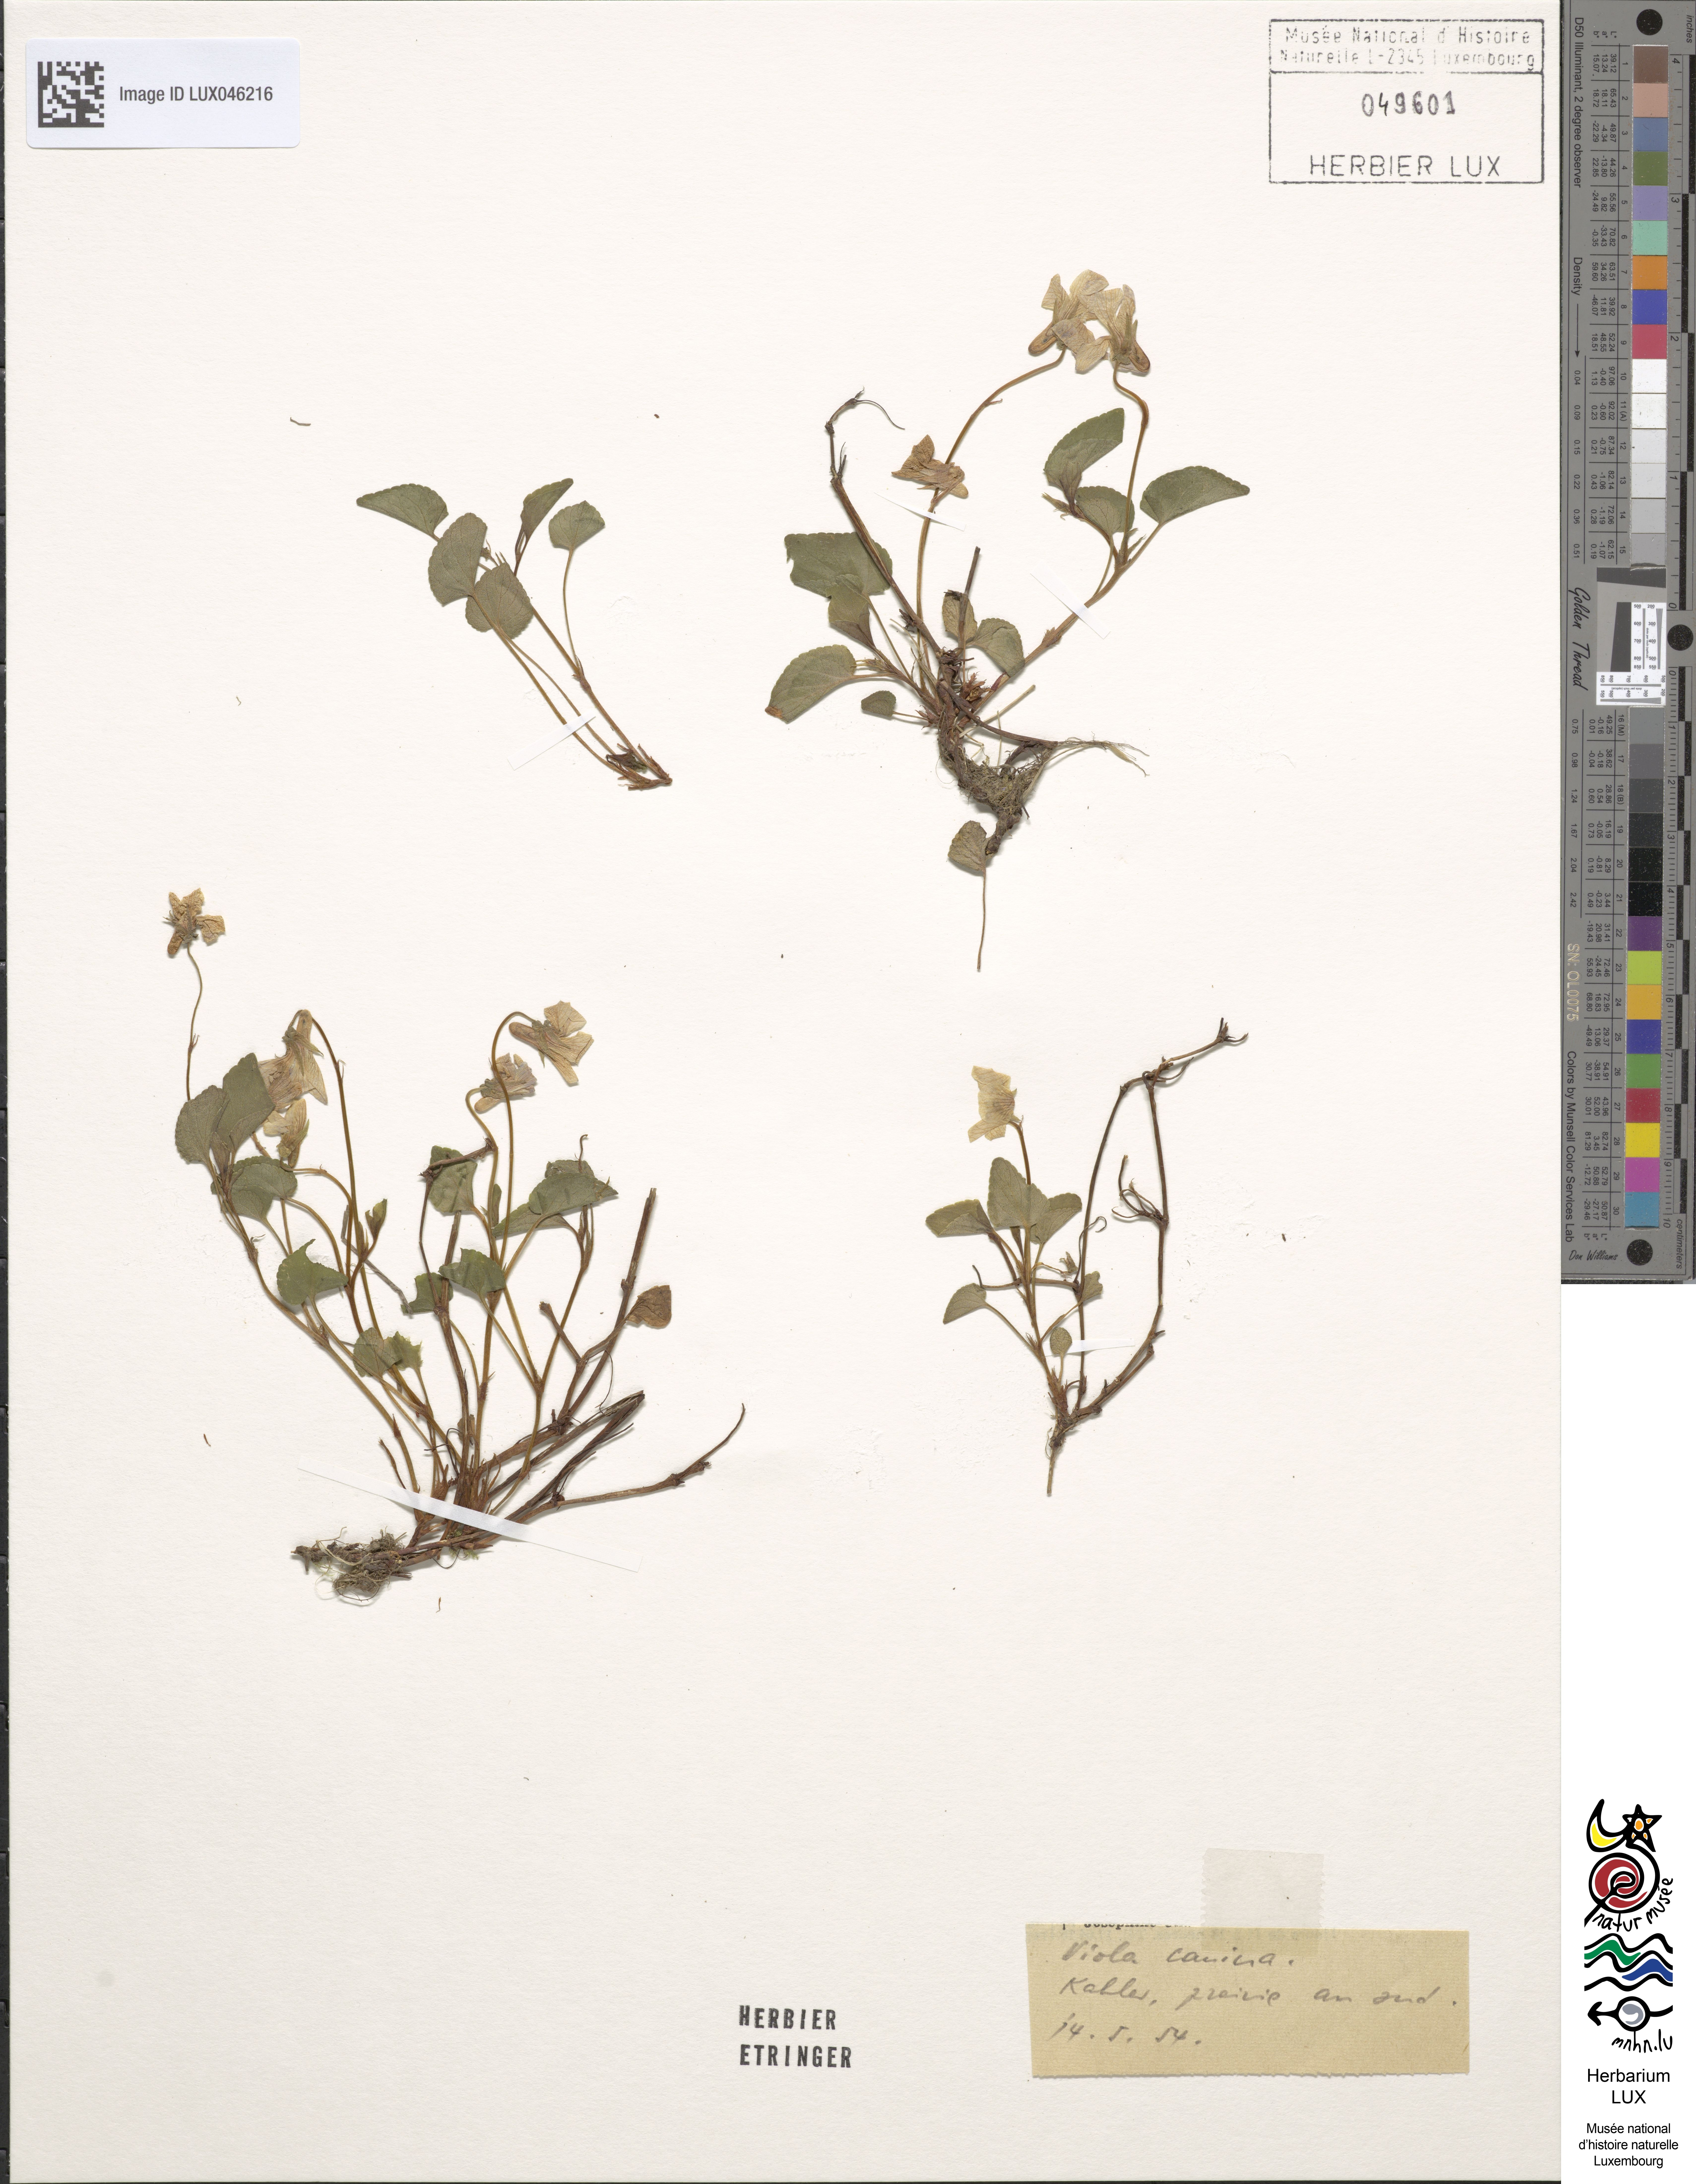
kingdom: Plantae
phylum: Tracheophyta
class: Magnoliopsida
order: Malpighiales
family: Violaceae
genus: Viola
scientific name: Viola canina
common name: Heath dog-violet
